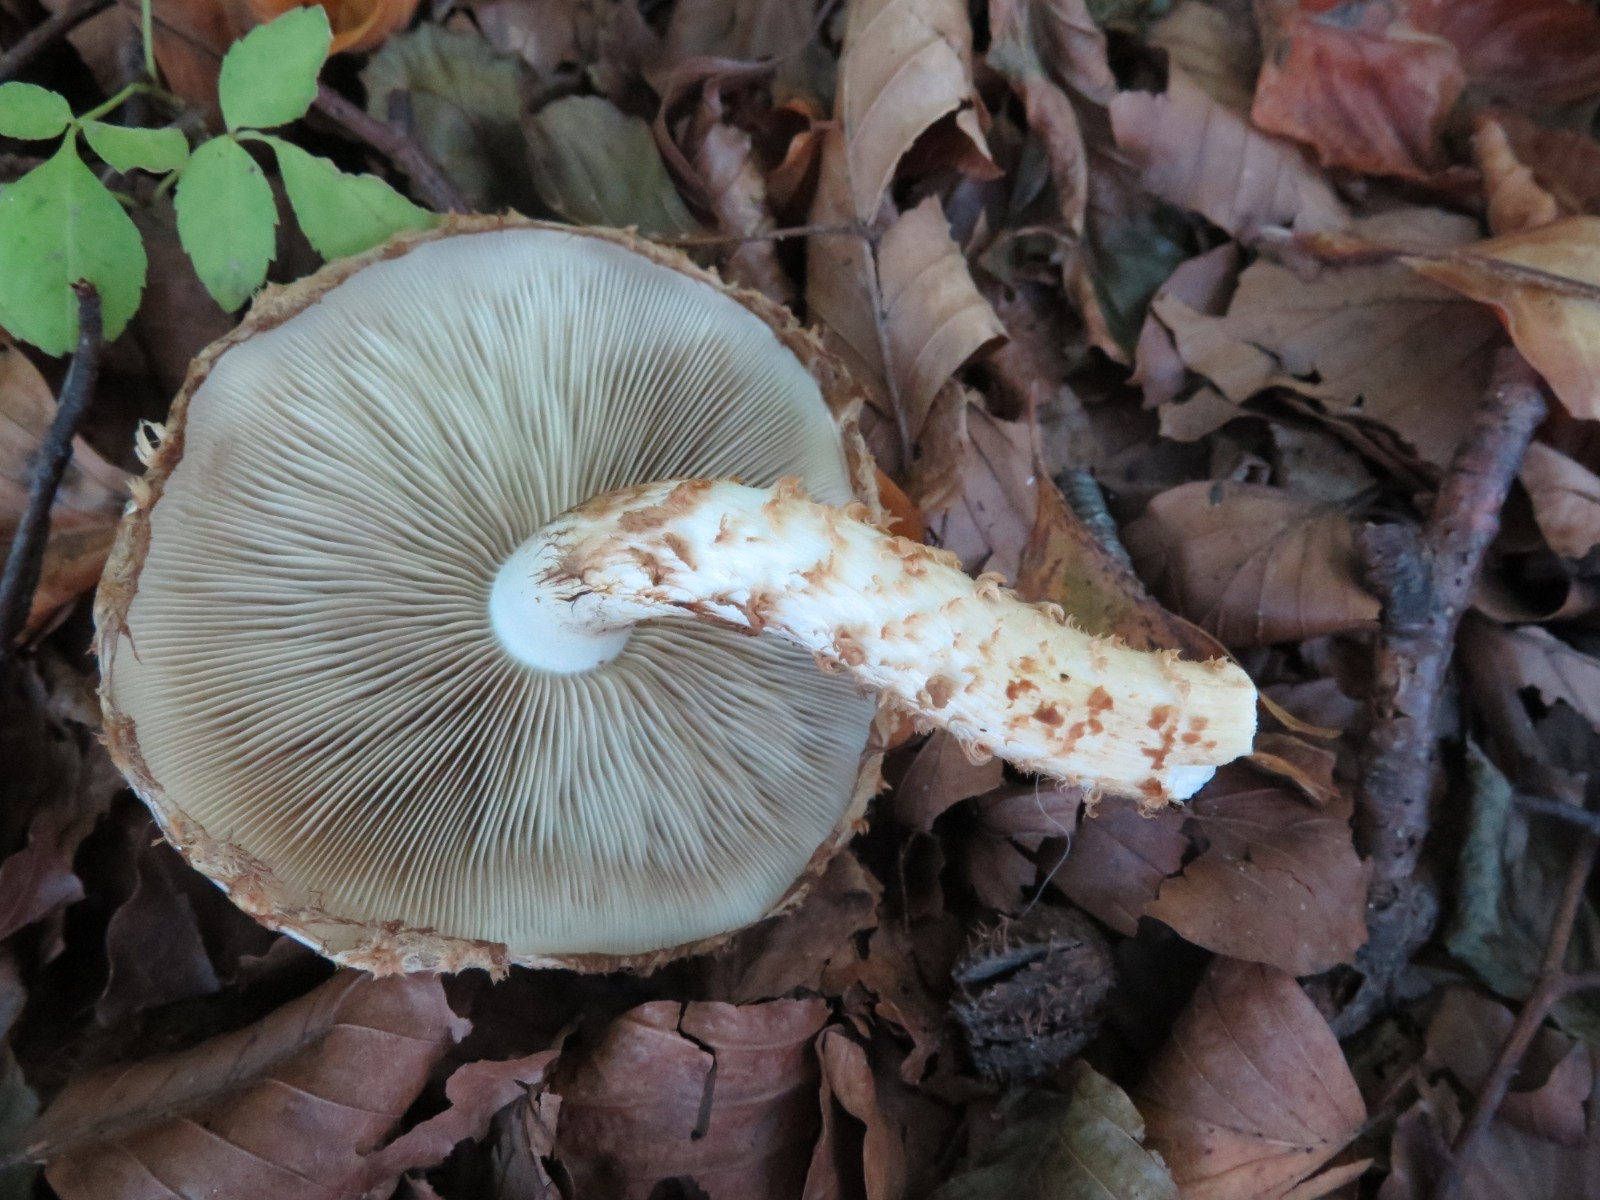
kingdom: Fungi
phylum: Basidiomycota
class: Agaricomycetes
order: Agaricales
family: Strophariaceae
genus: Pholiota
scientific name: Pholiota squarrosa
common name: krumskællet skælhat
